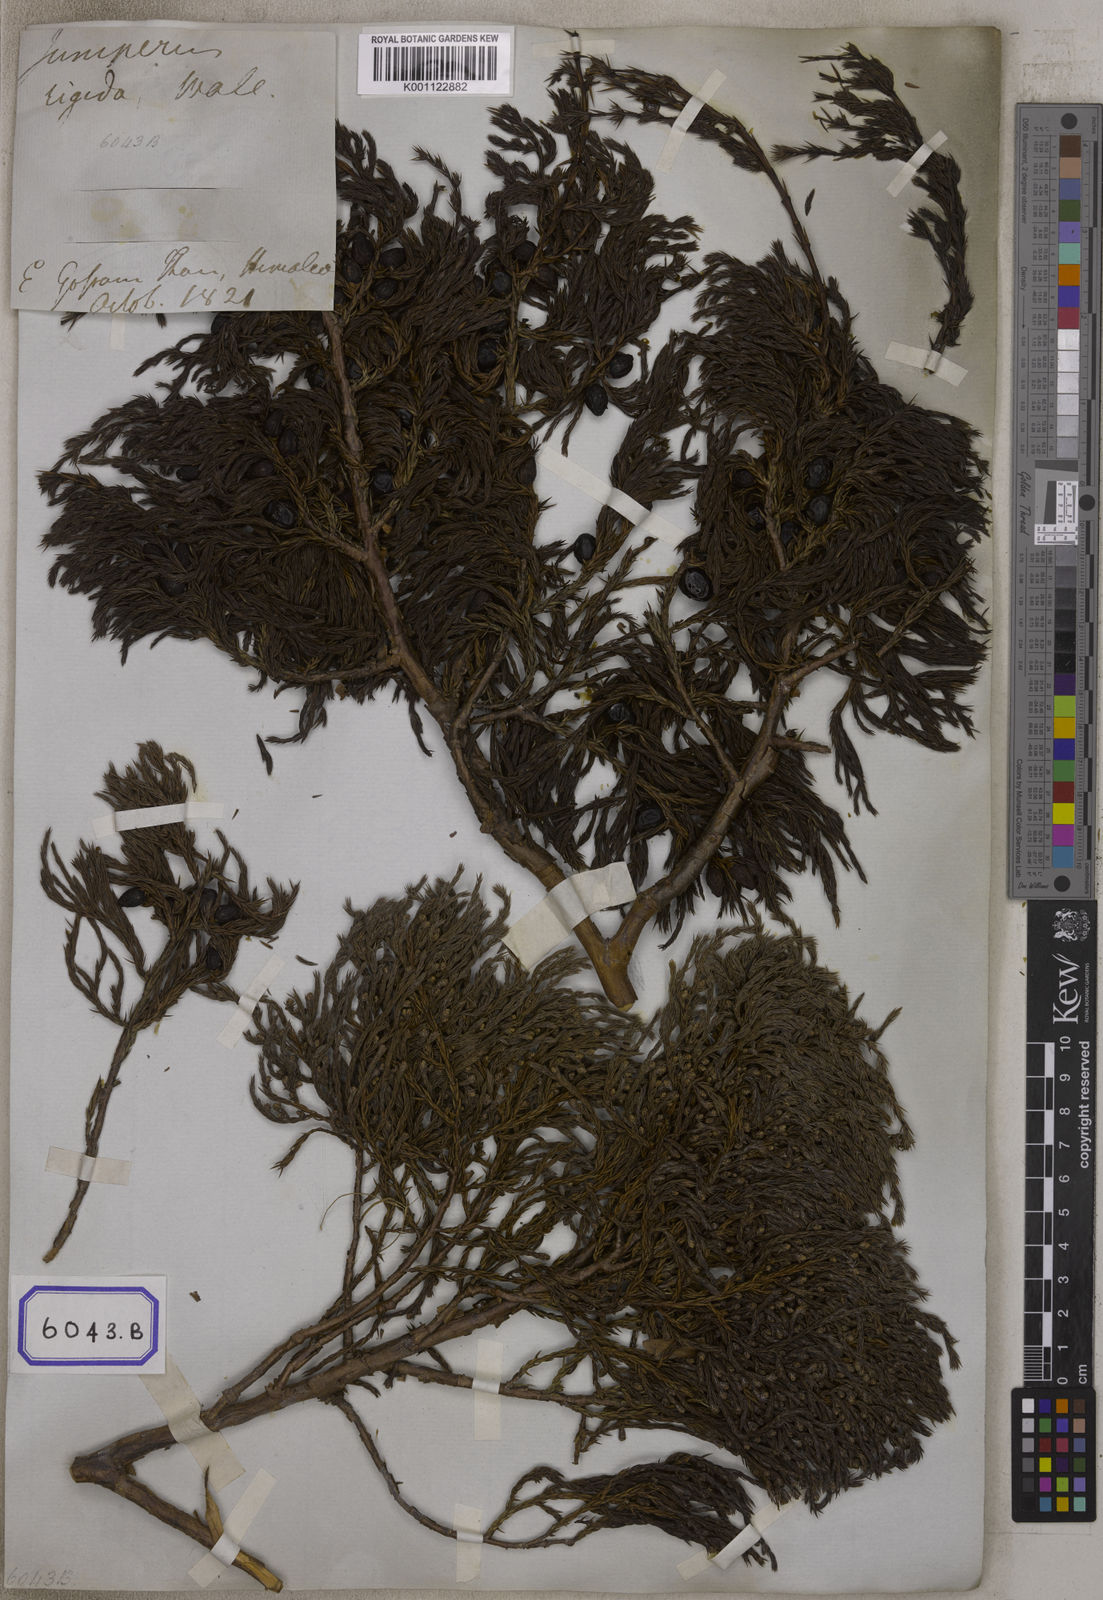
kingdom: Plantae
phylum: Tracheophyta
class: Pinopsida
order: Pinales
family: Cupressaceae
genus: Juniperus
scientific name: Juniperus
